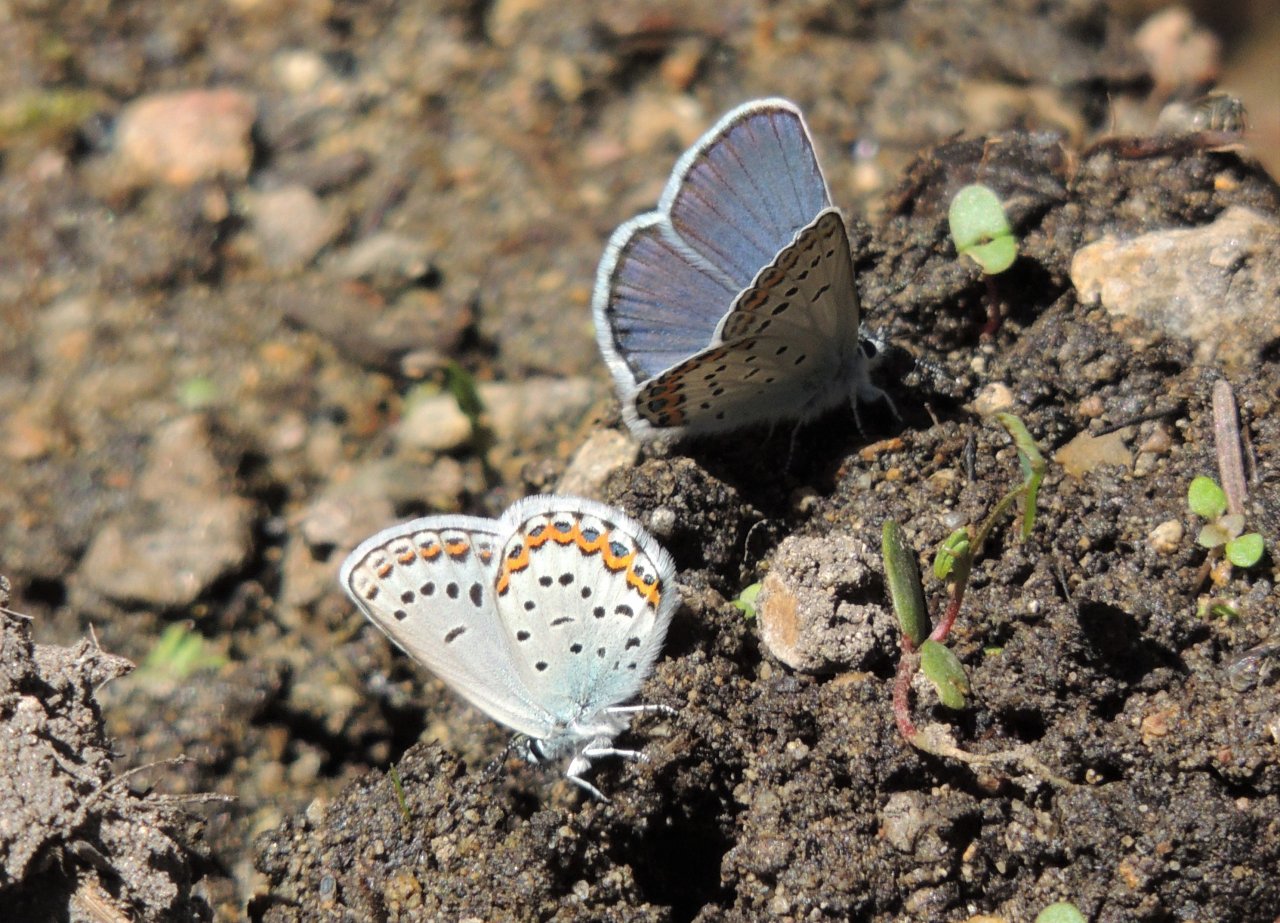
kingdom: Animalia
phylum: Arthropoda
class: Insecta
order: Lepidoptera
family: Lycaenidae
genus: Lycaeides
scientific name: Lycaeides melissa
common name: Melissa Blue
